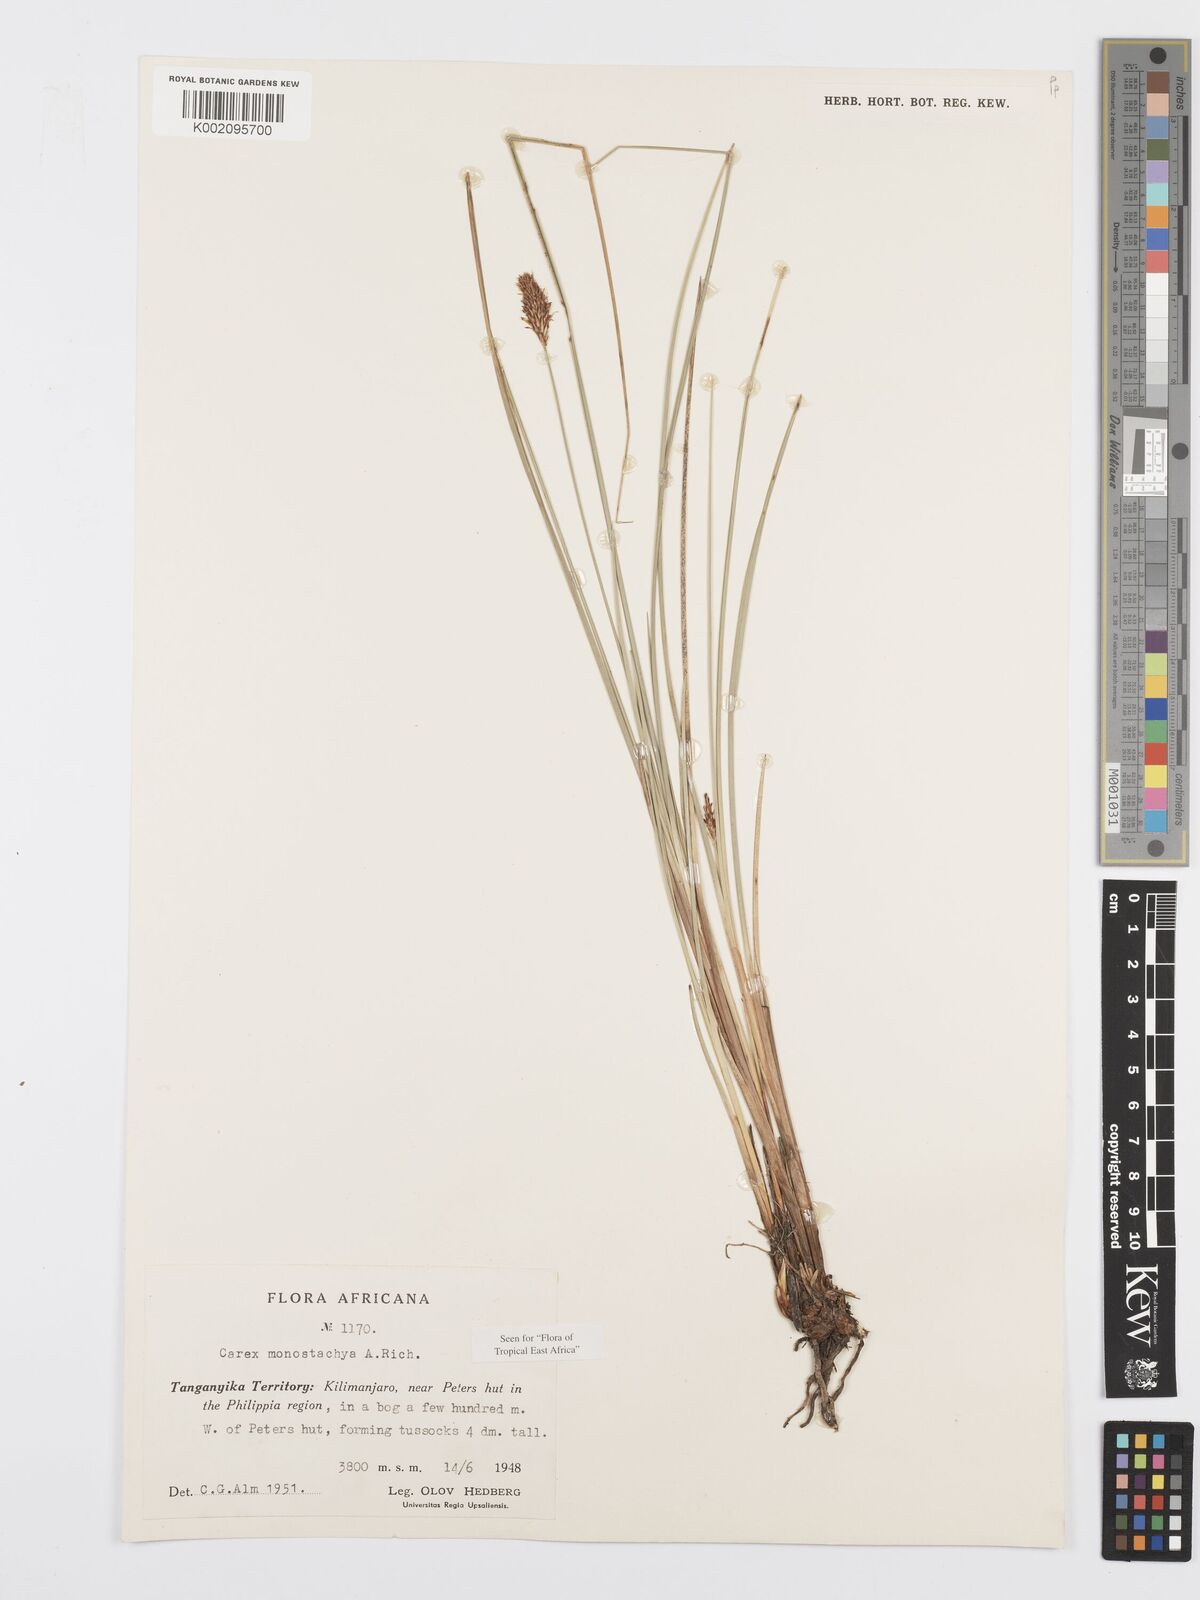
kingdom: Plantae
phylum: Tracheophyta
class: Liliopsida
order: Poales
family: Cyperaceae
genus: Carex
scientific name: Carex monostachya
